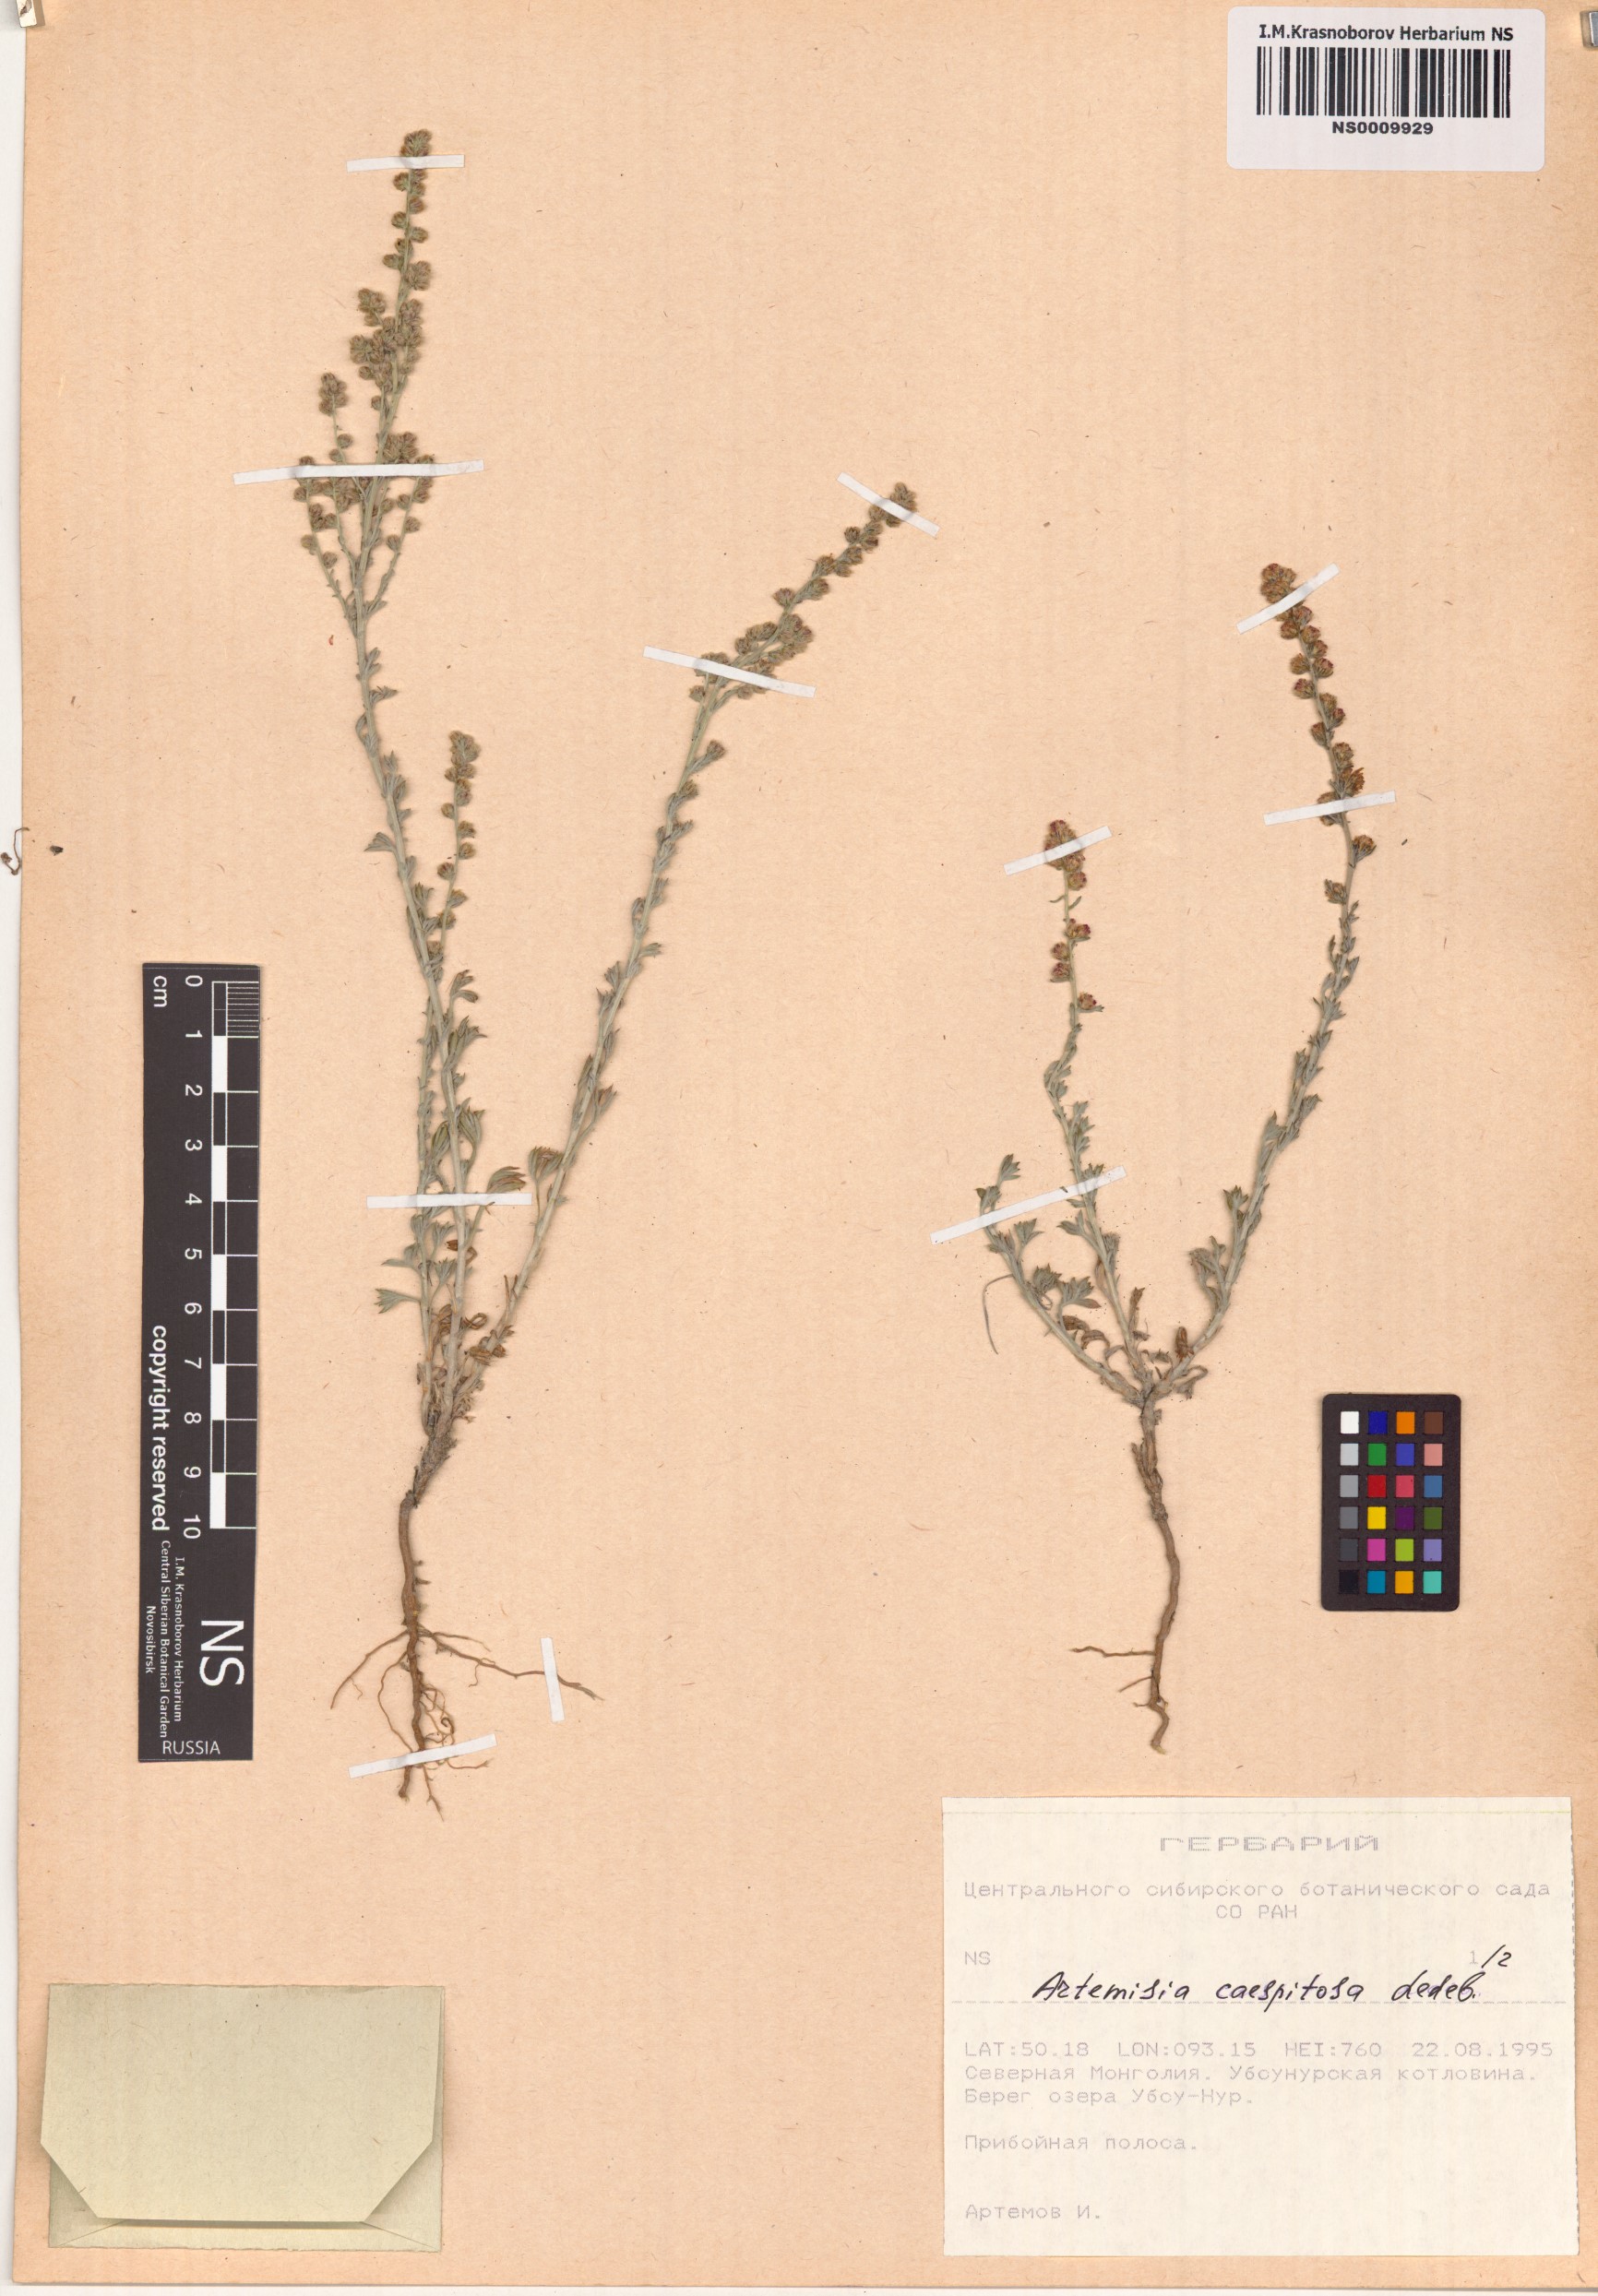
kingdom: Plantae
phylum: Tracheophyta
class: Magnoliopsida
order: Asterales
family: Asteraceae
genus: Artemisia
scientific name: Artemisia caespitosa
